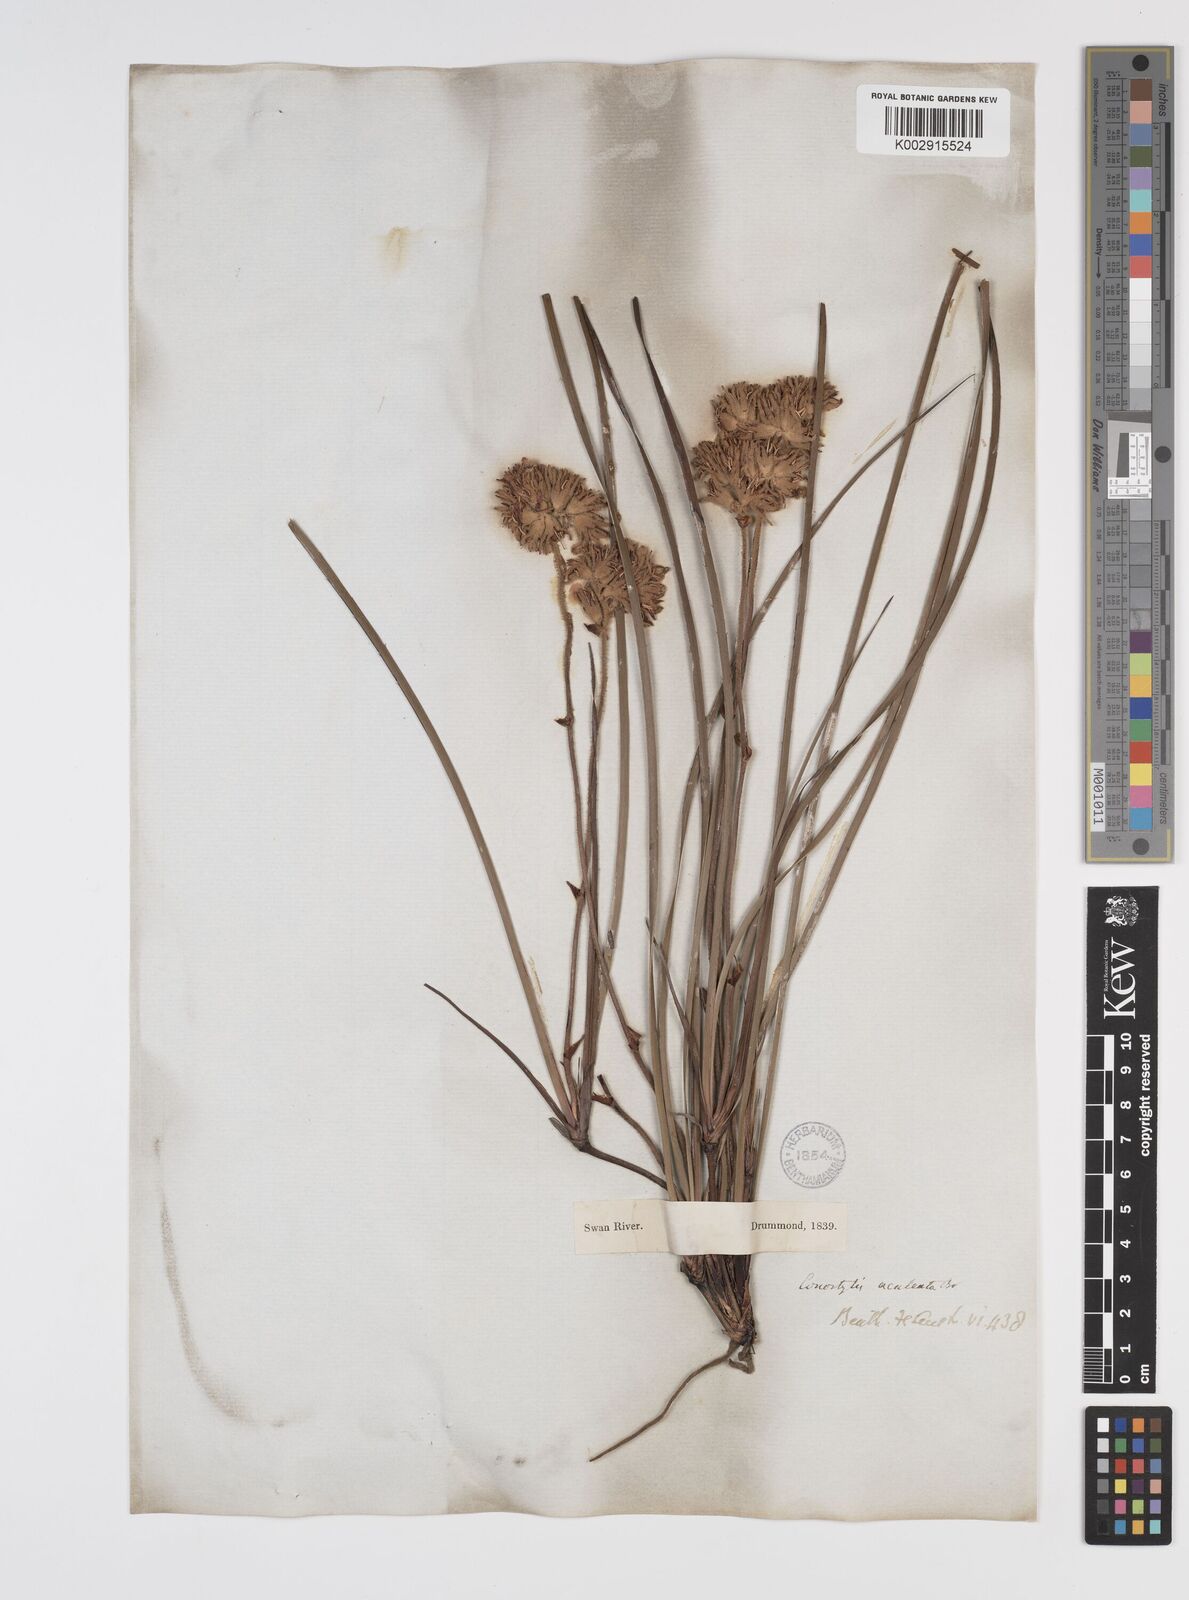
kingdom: Plantae
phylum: Tracheophyta
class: Liliopsida
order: Commelinales
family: Haemodoraceae
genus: Conostylis
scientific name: Conostylis aculeata
